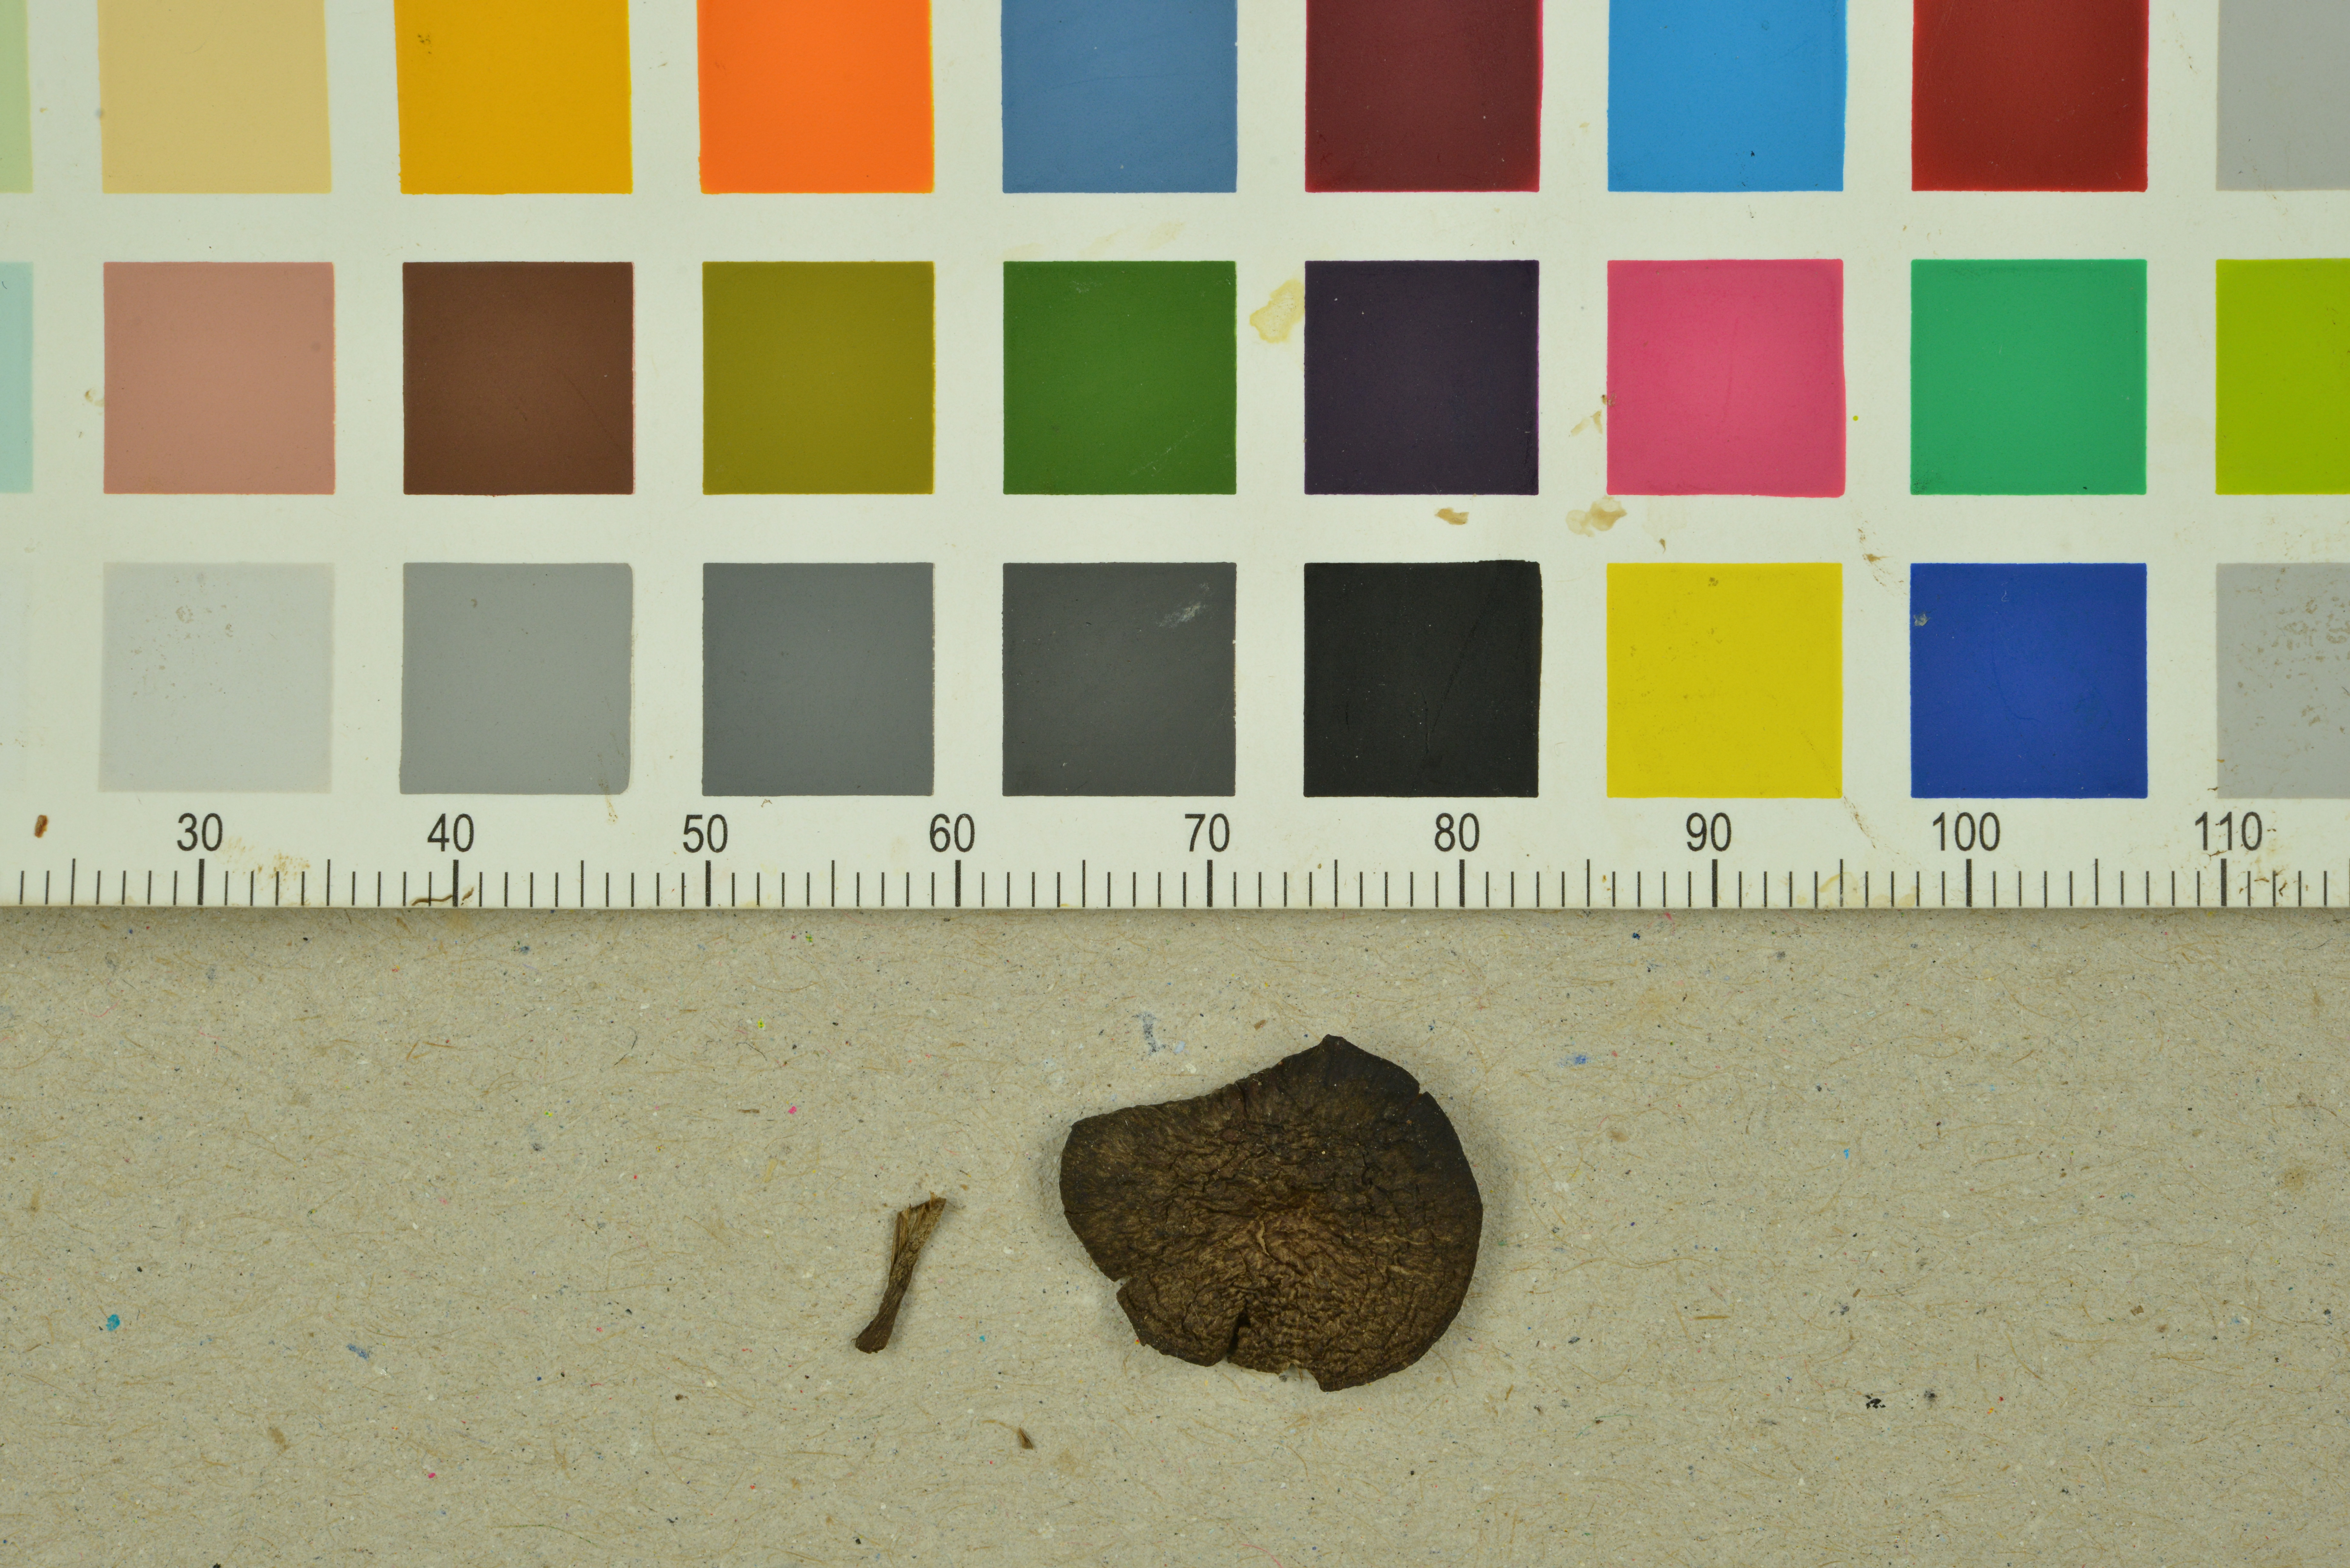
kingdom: Fungi
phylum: Basidiomycota
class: Agaricomycetes
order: Agaricales
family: Entolomataceae
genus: Entoloma
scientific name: Entoloma clandestinum
